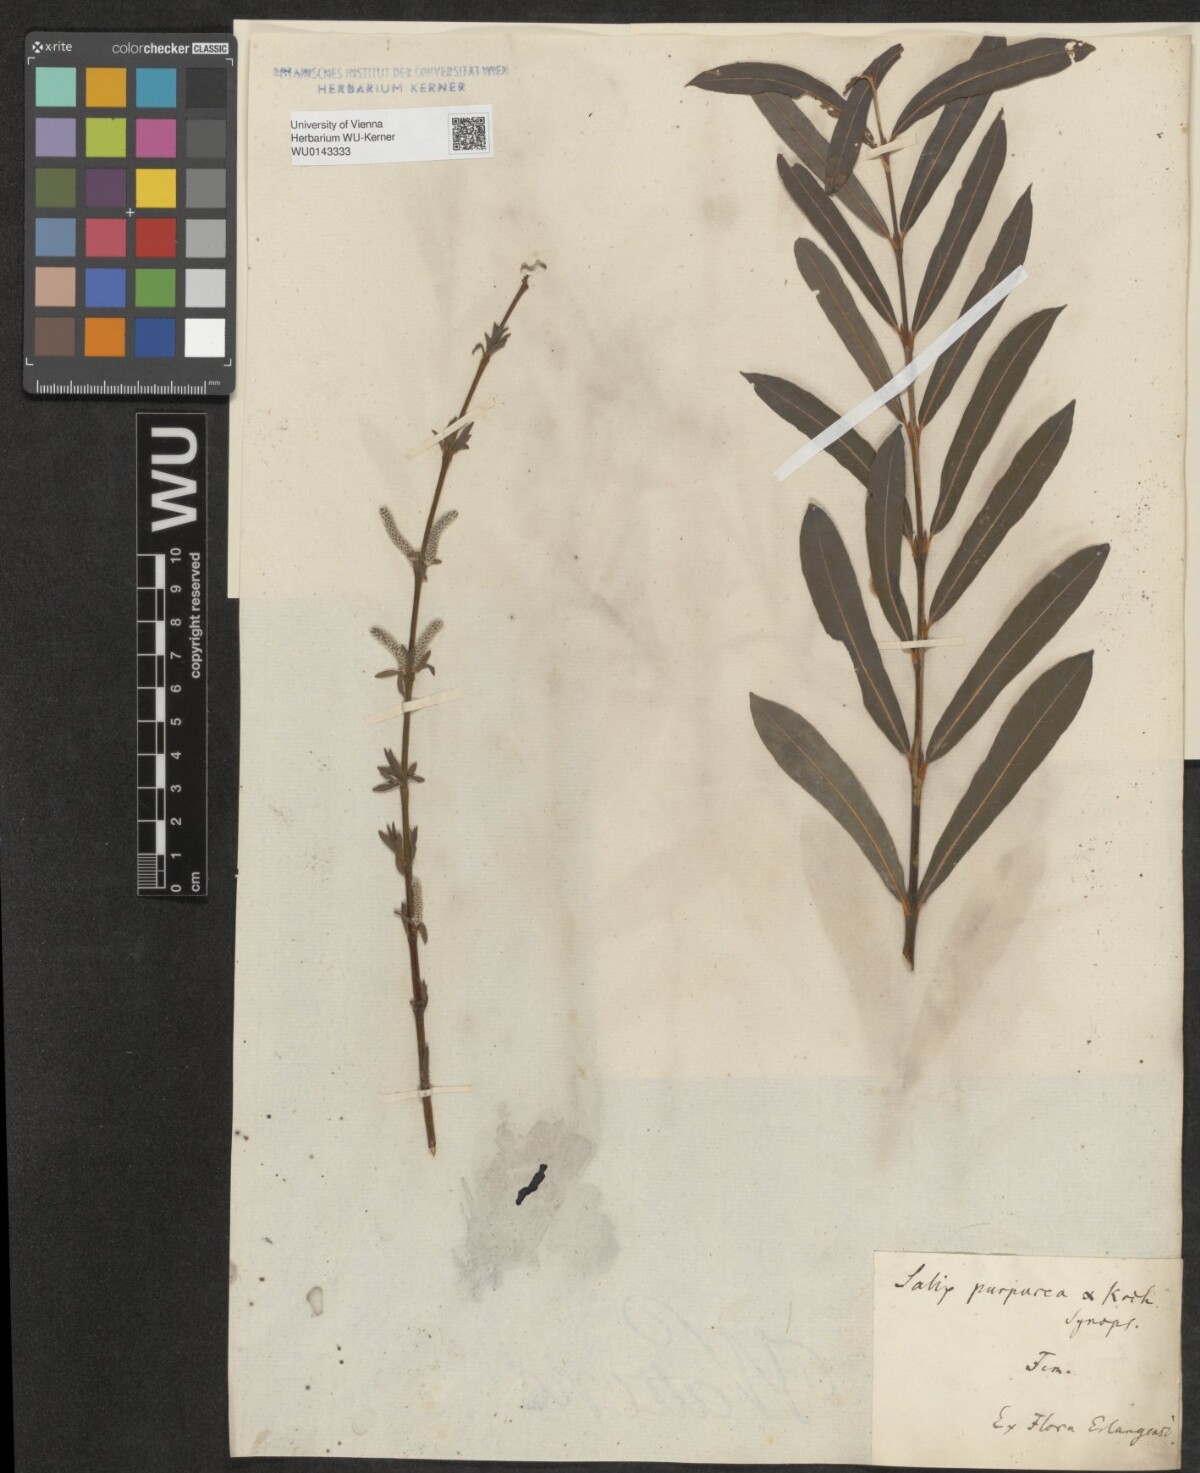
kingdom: Plantae
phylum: Tracheophyta
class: Magnoliopsida
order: Malpighiales
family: Salicaceae
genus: Salix
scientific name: Salix purpurea
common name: Purple willow
